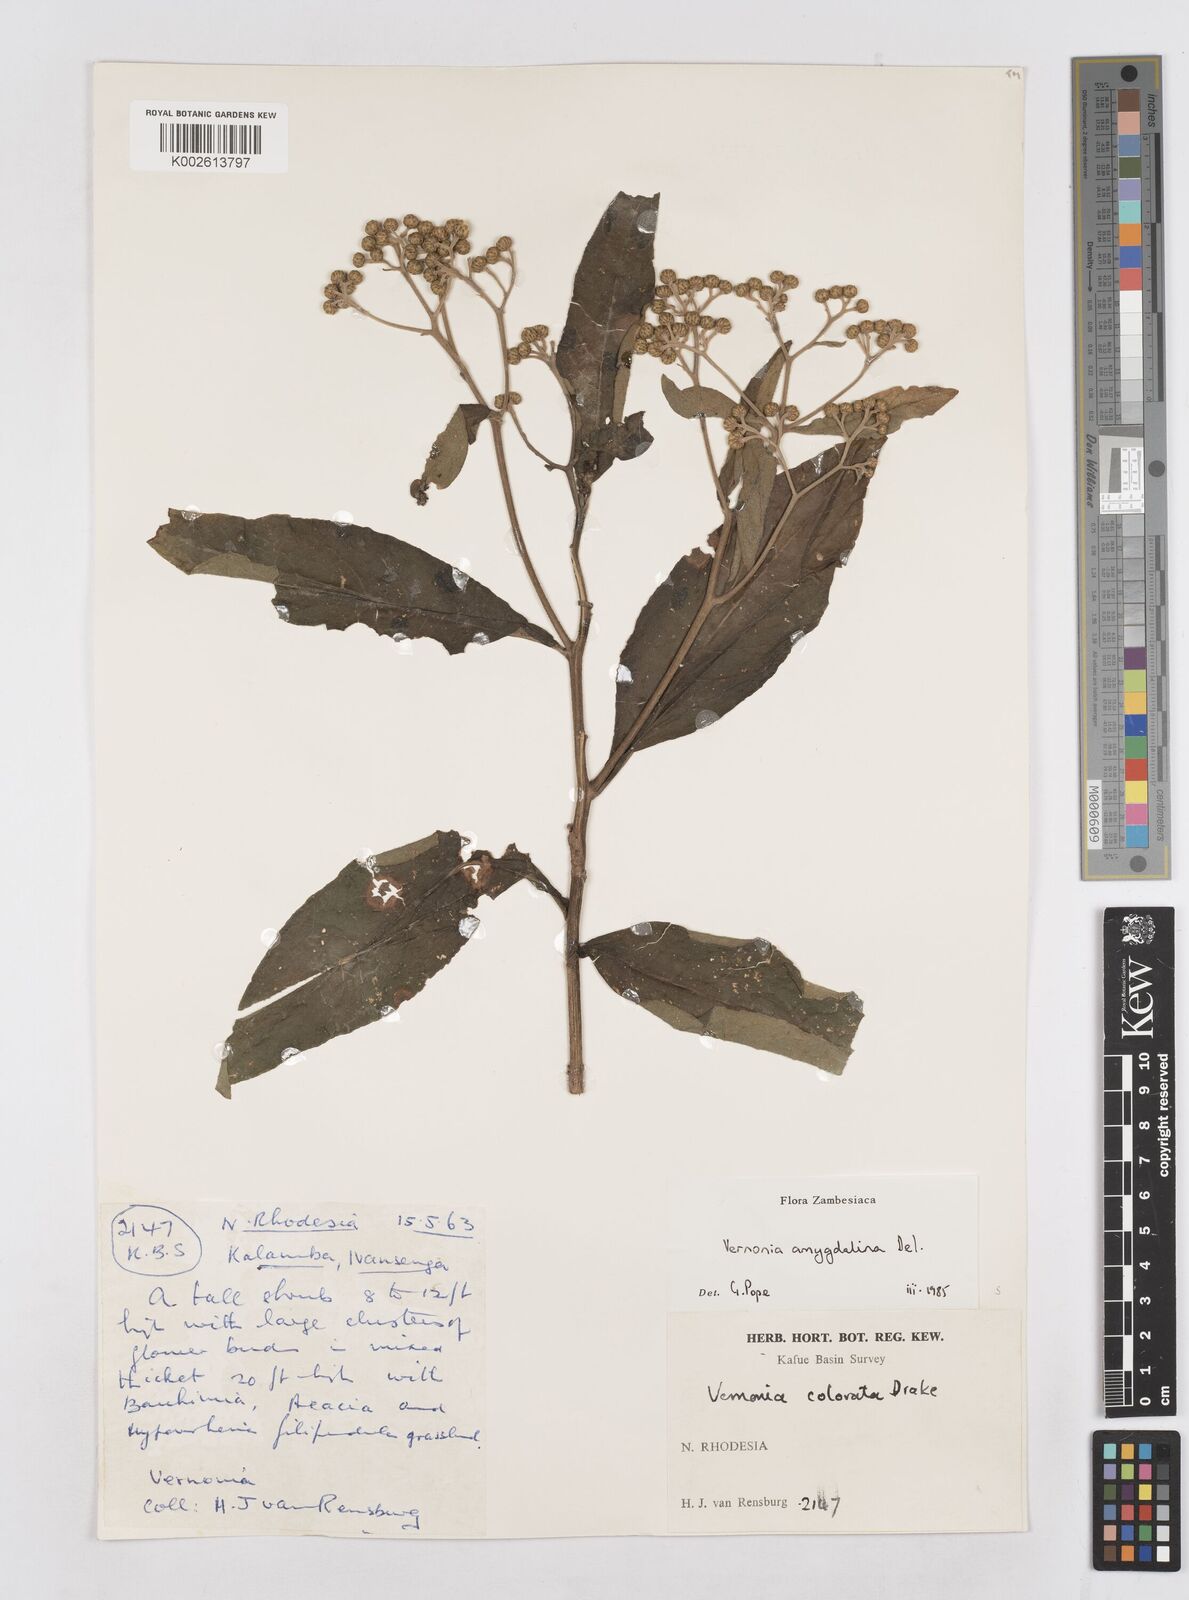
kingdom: Plantae
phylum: Tracheophyta
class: Magnoliopsida
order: Asterales
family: Asteraceae
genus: Gymnanthemum
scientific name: Gymnanthemum amygdalinum
